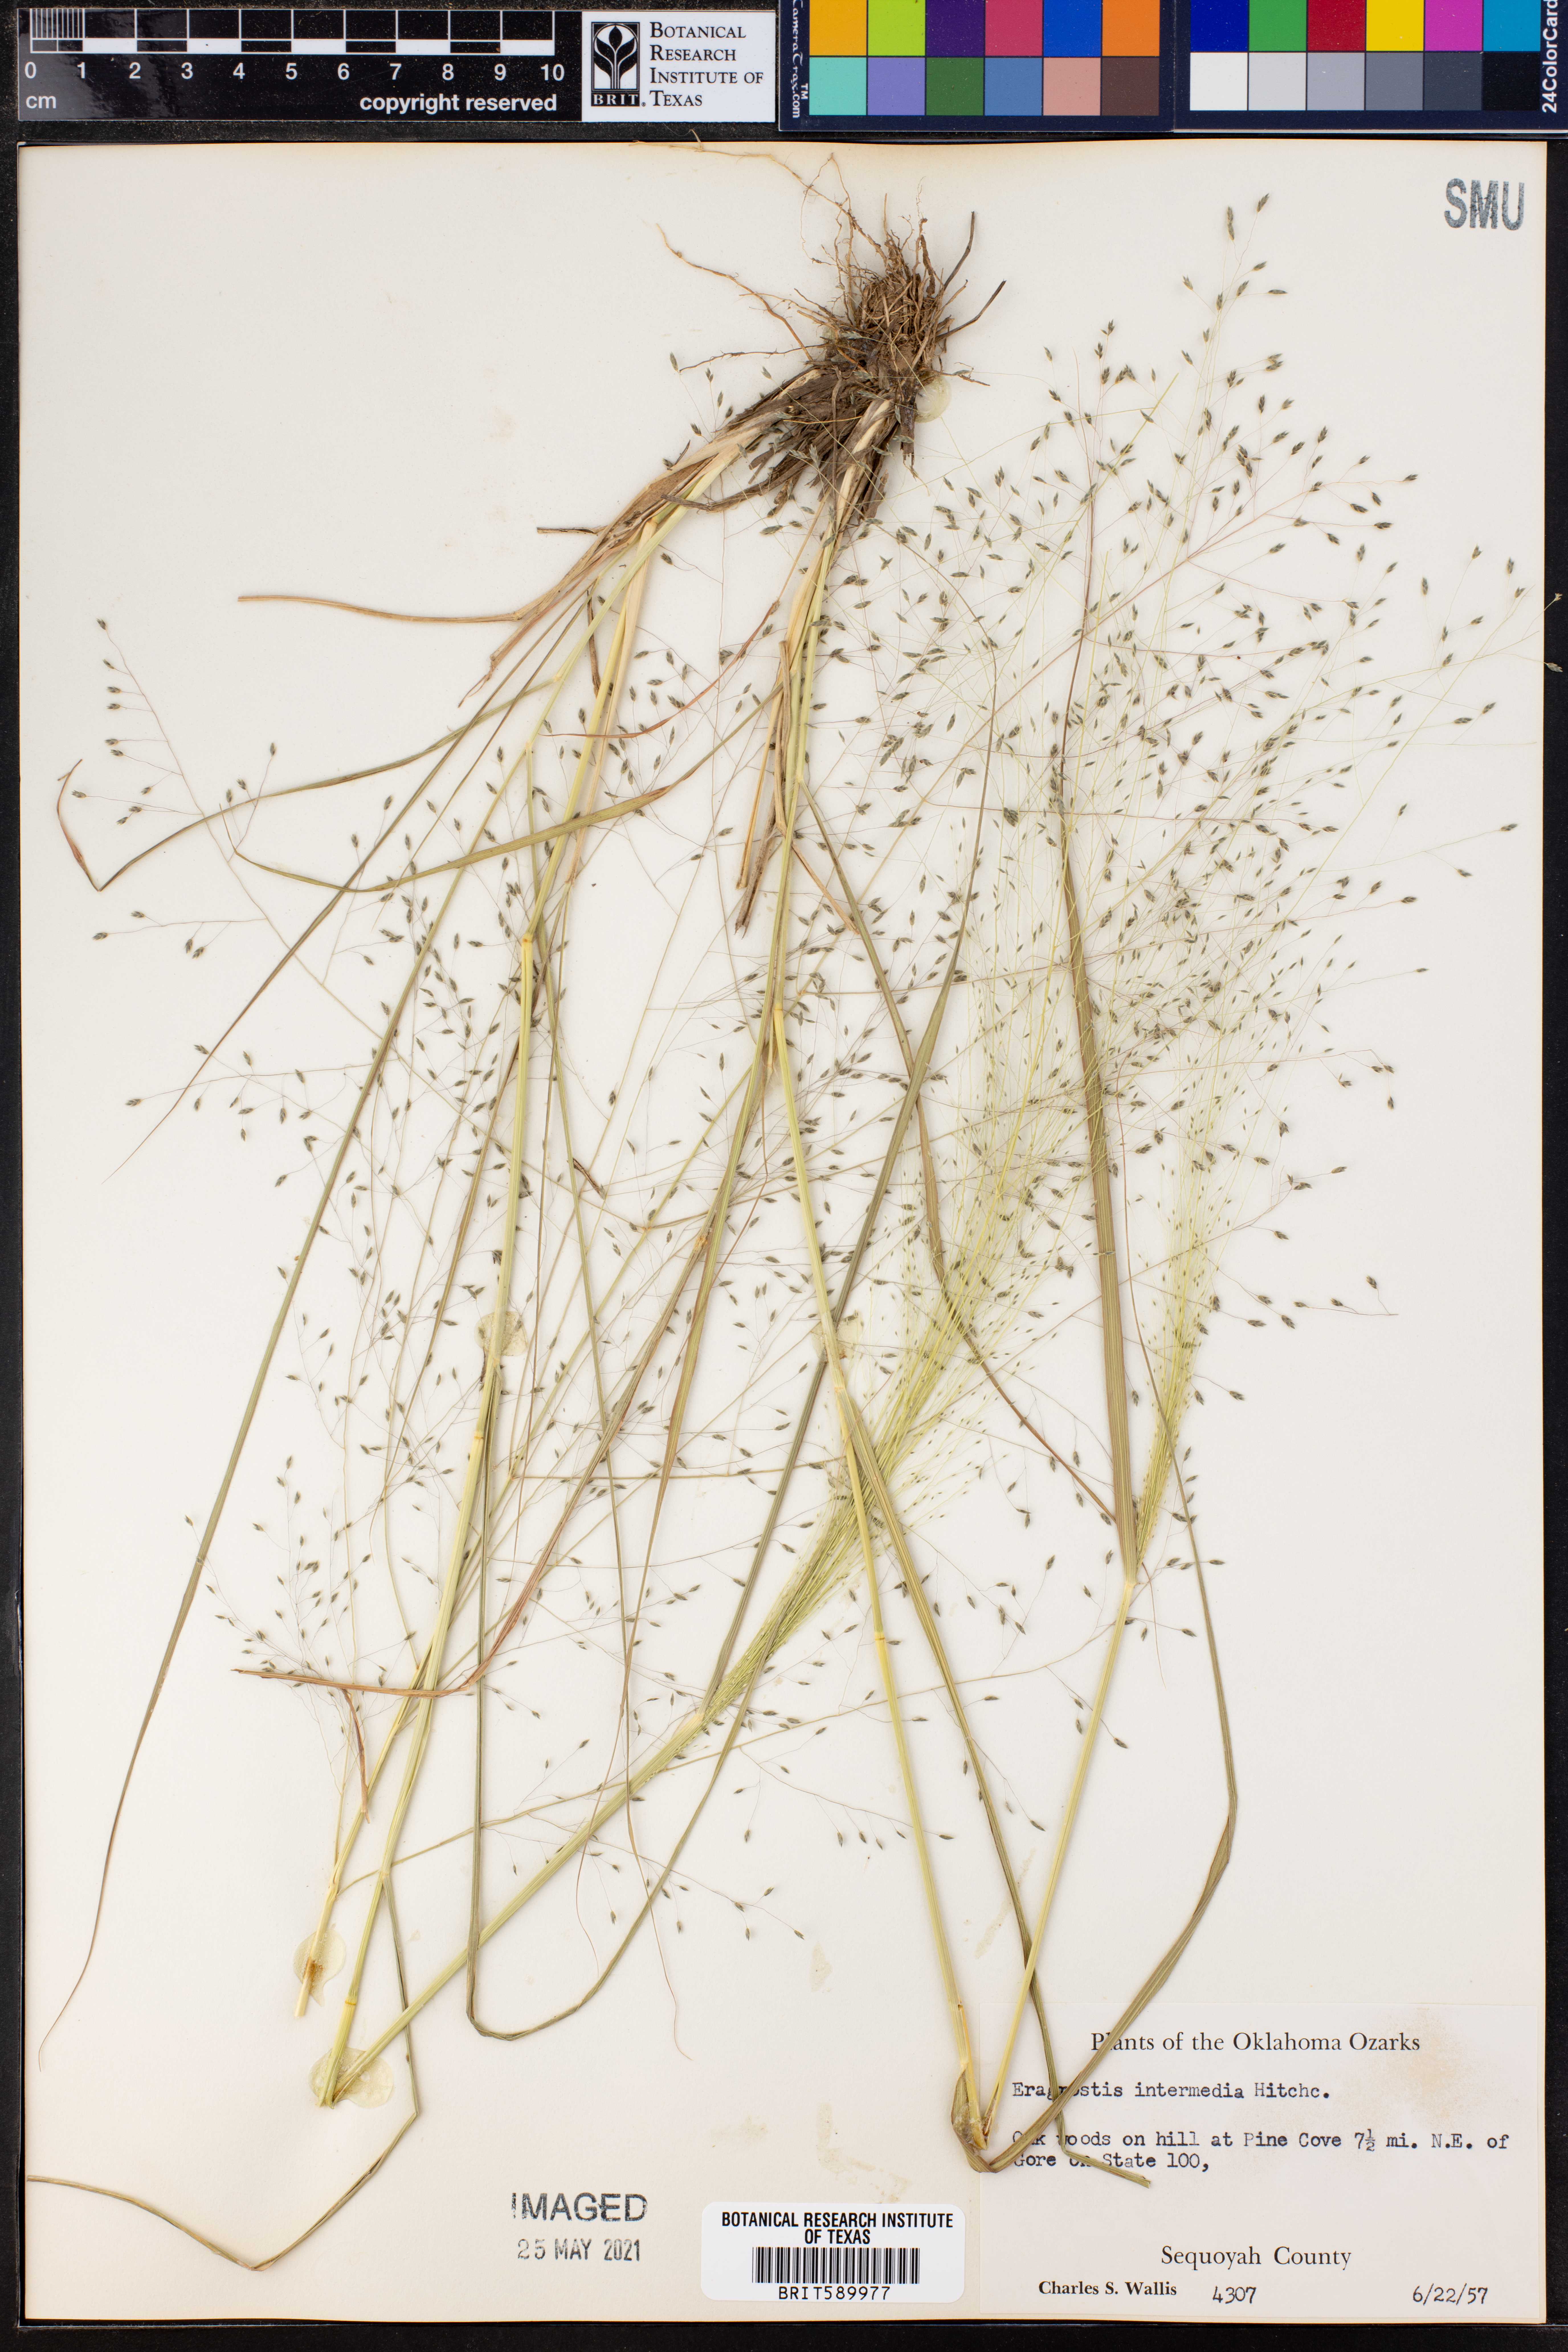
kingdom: Plantae
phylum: Tracheophyta
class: Liliopsida
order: Poales
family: Poaceae
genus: Eragrostis
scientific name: Eragrostis intermedia
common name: Plains love grass
